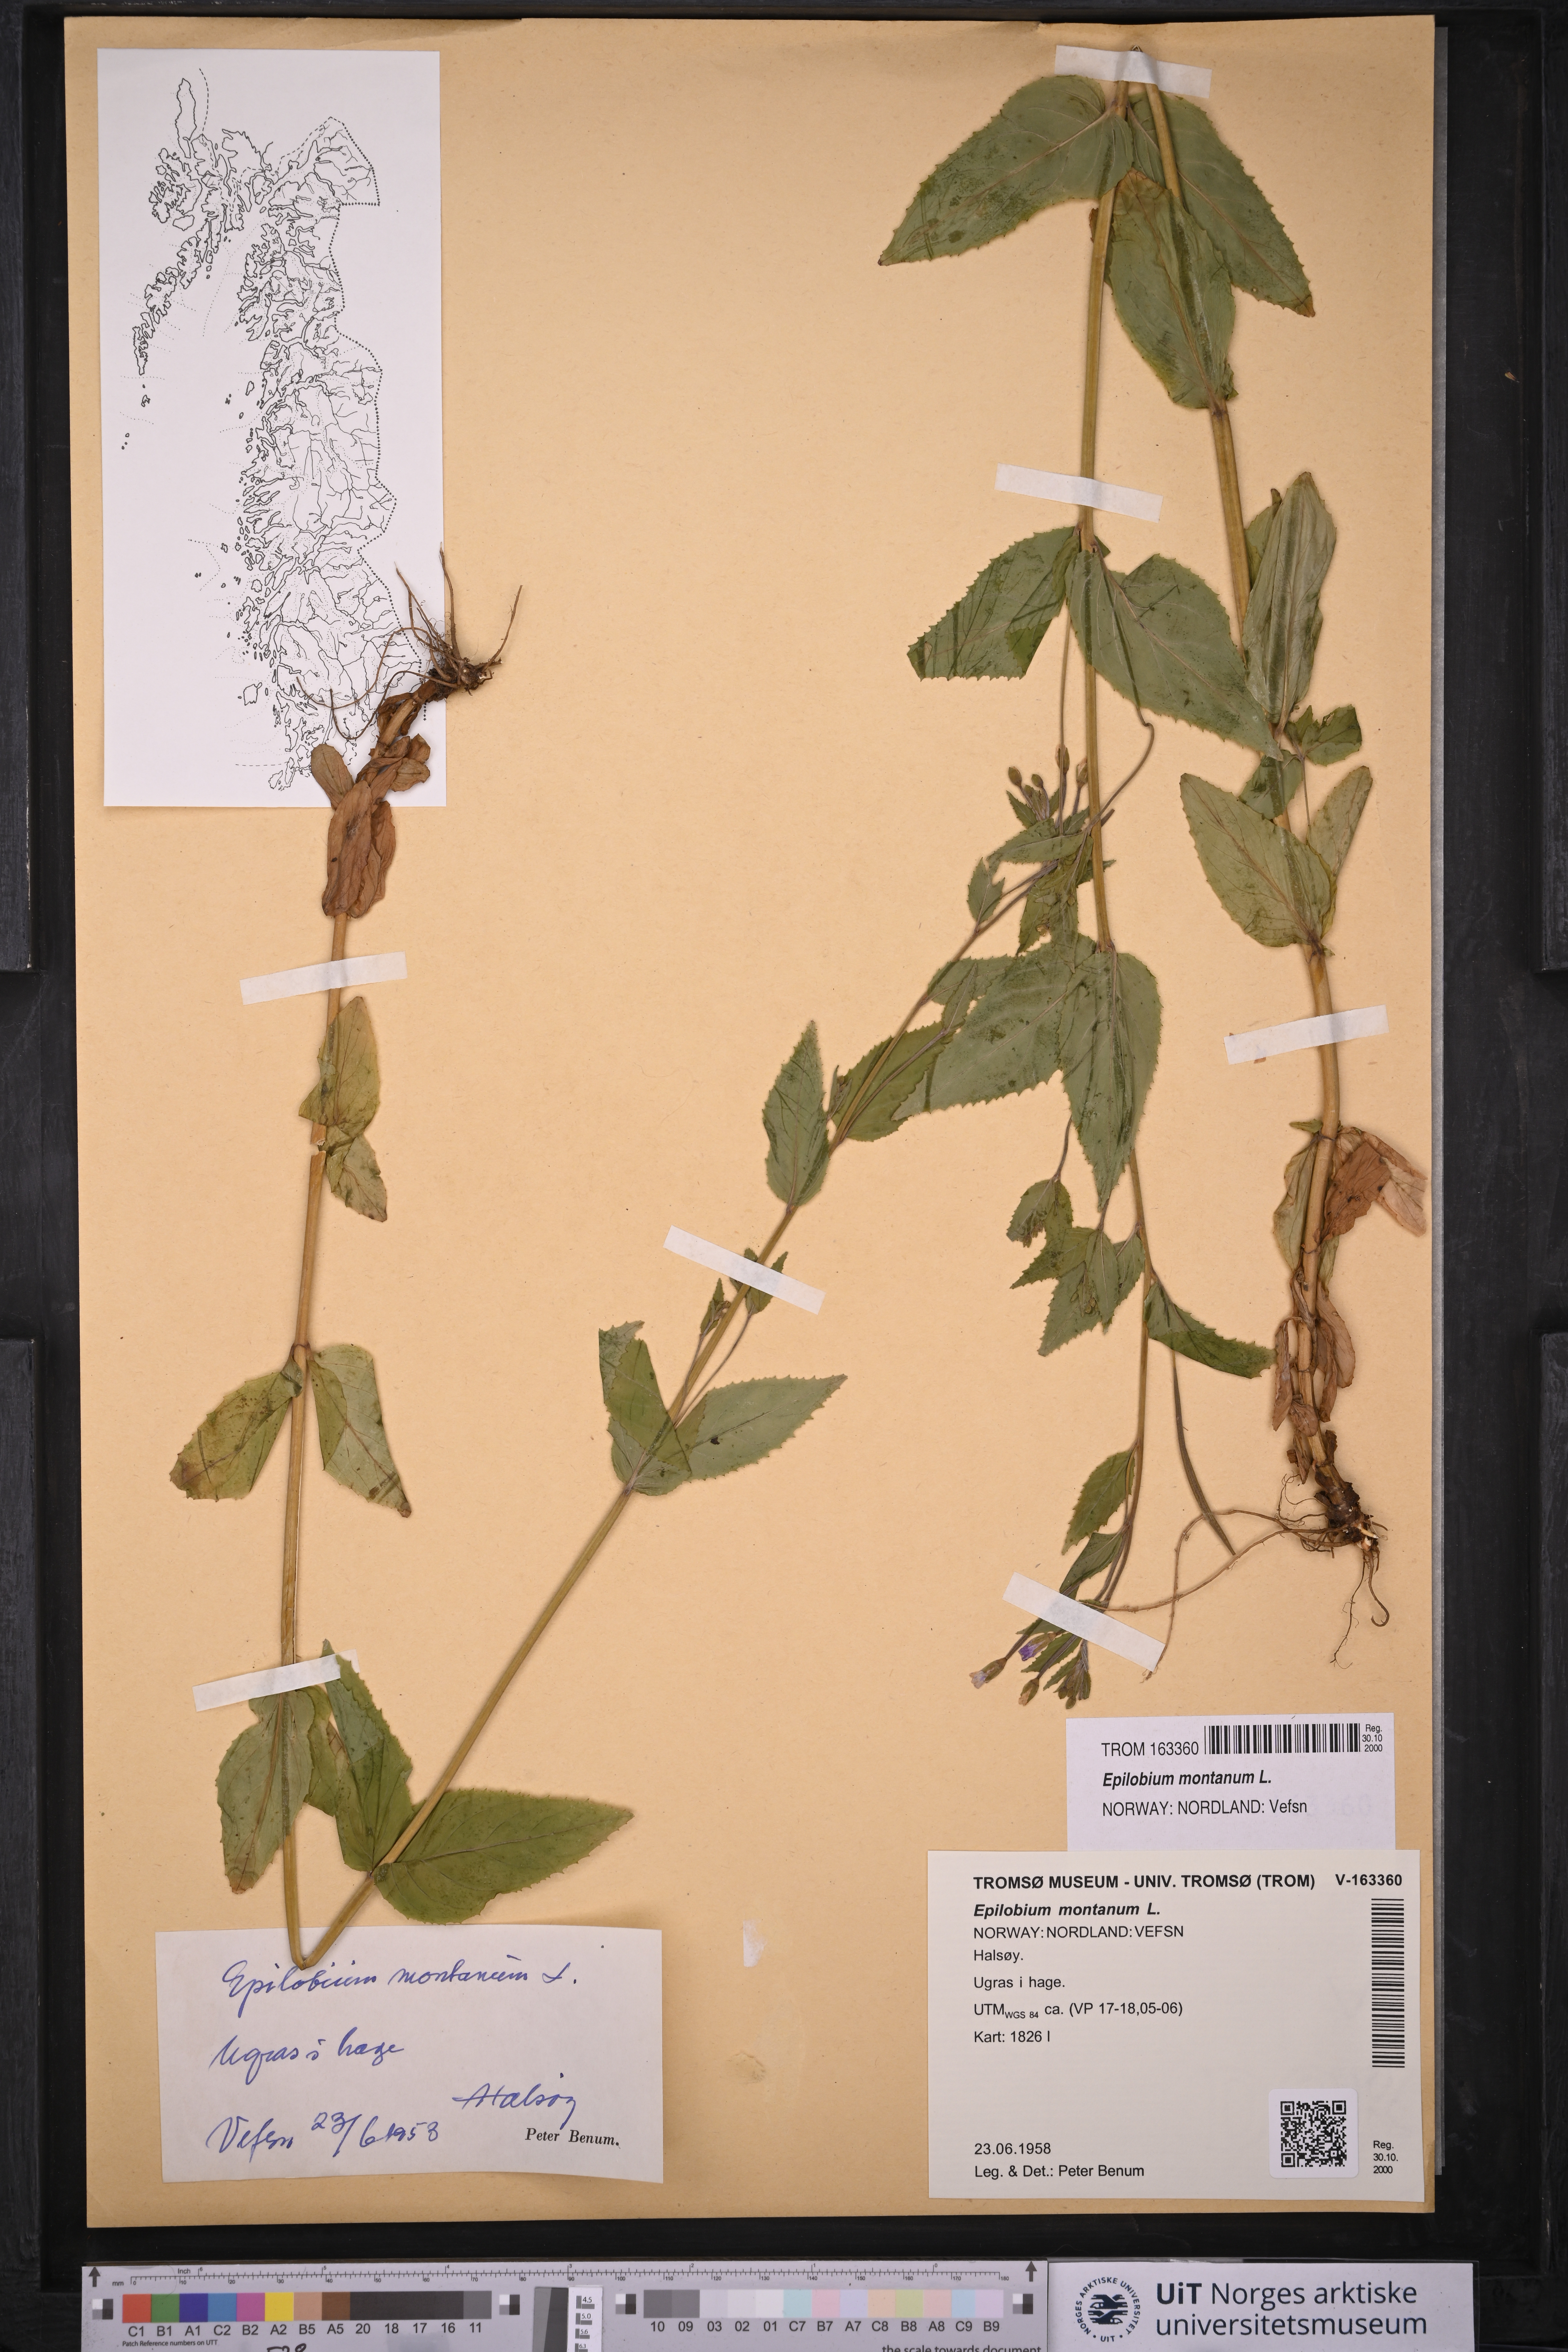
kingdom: Plantae
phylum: Tracheophyta
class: Magnoliopsida
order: Myrtales
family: Onagraceae
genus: Epilobium
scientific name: Epilobium montanum
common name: Broad-leaved willowherb
